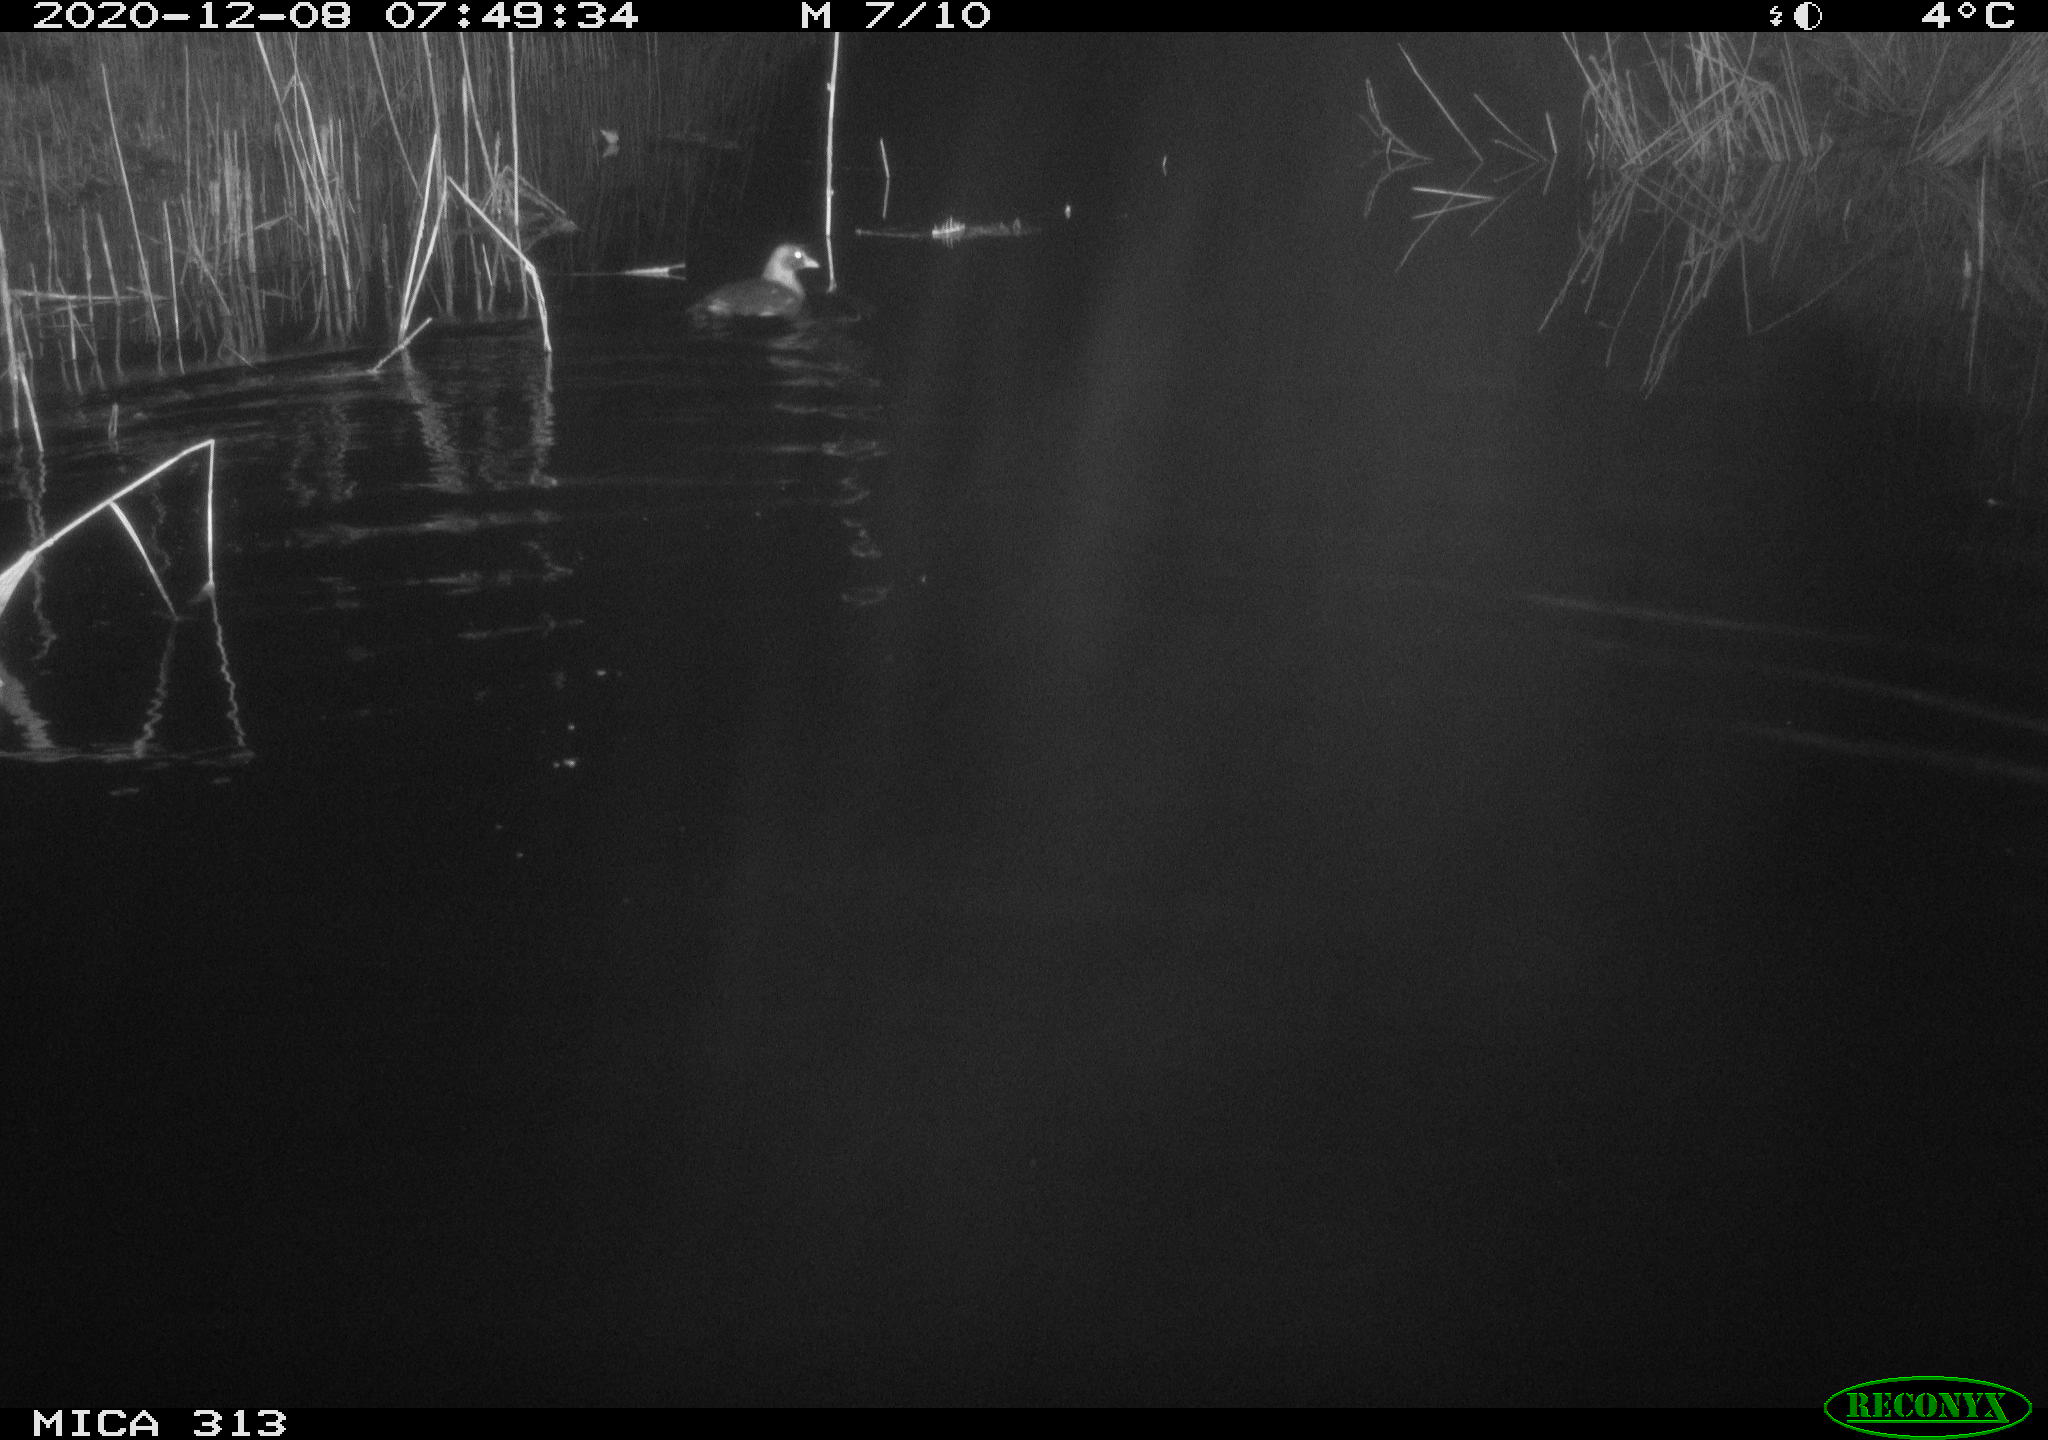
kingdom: Animalia
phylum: Chordata
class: Aves
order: Gruiformes
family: Rallidae
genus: Gallinula
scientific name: Gallinula chloropus
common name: Common moorhen
